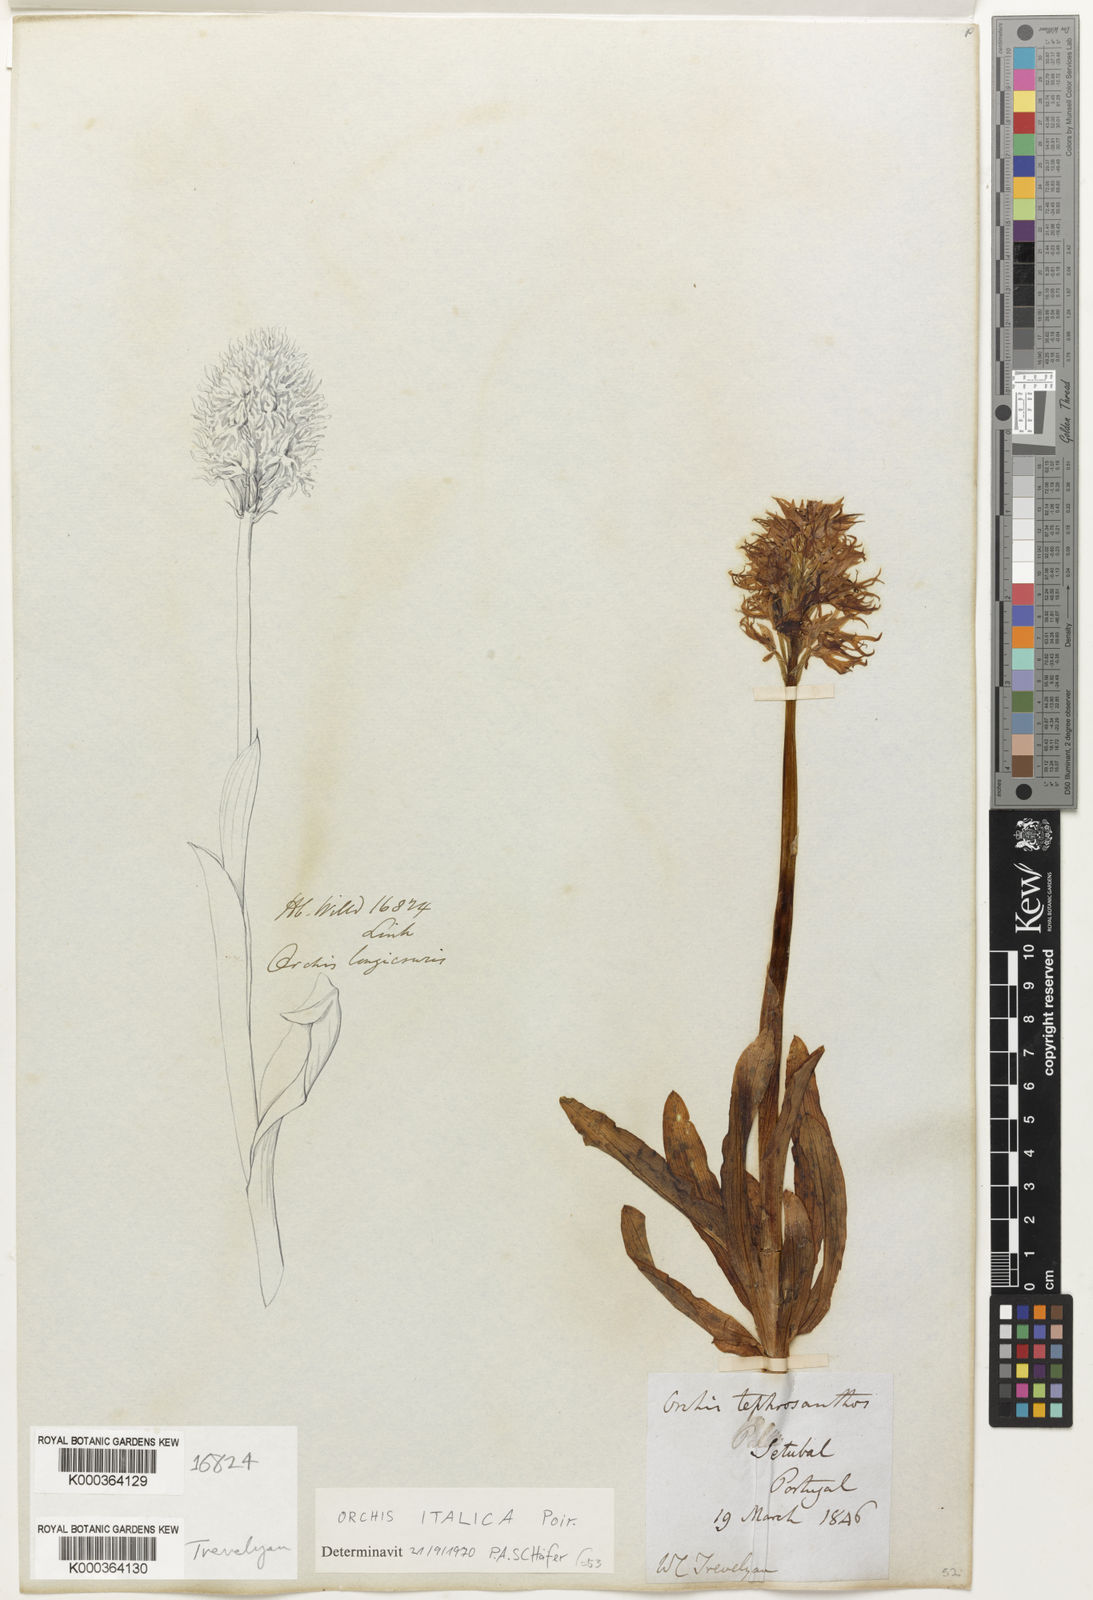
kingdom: Plantae
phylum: Tracheophyta
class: Liliopsida
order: Asparagales
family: Orchidaceae
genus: Orchis
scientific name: Orchis italica
